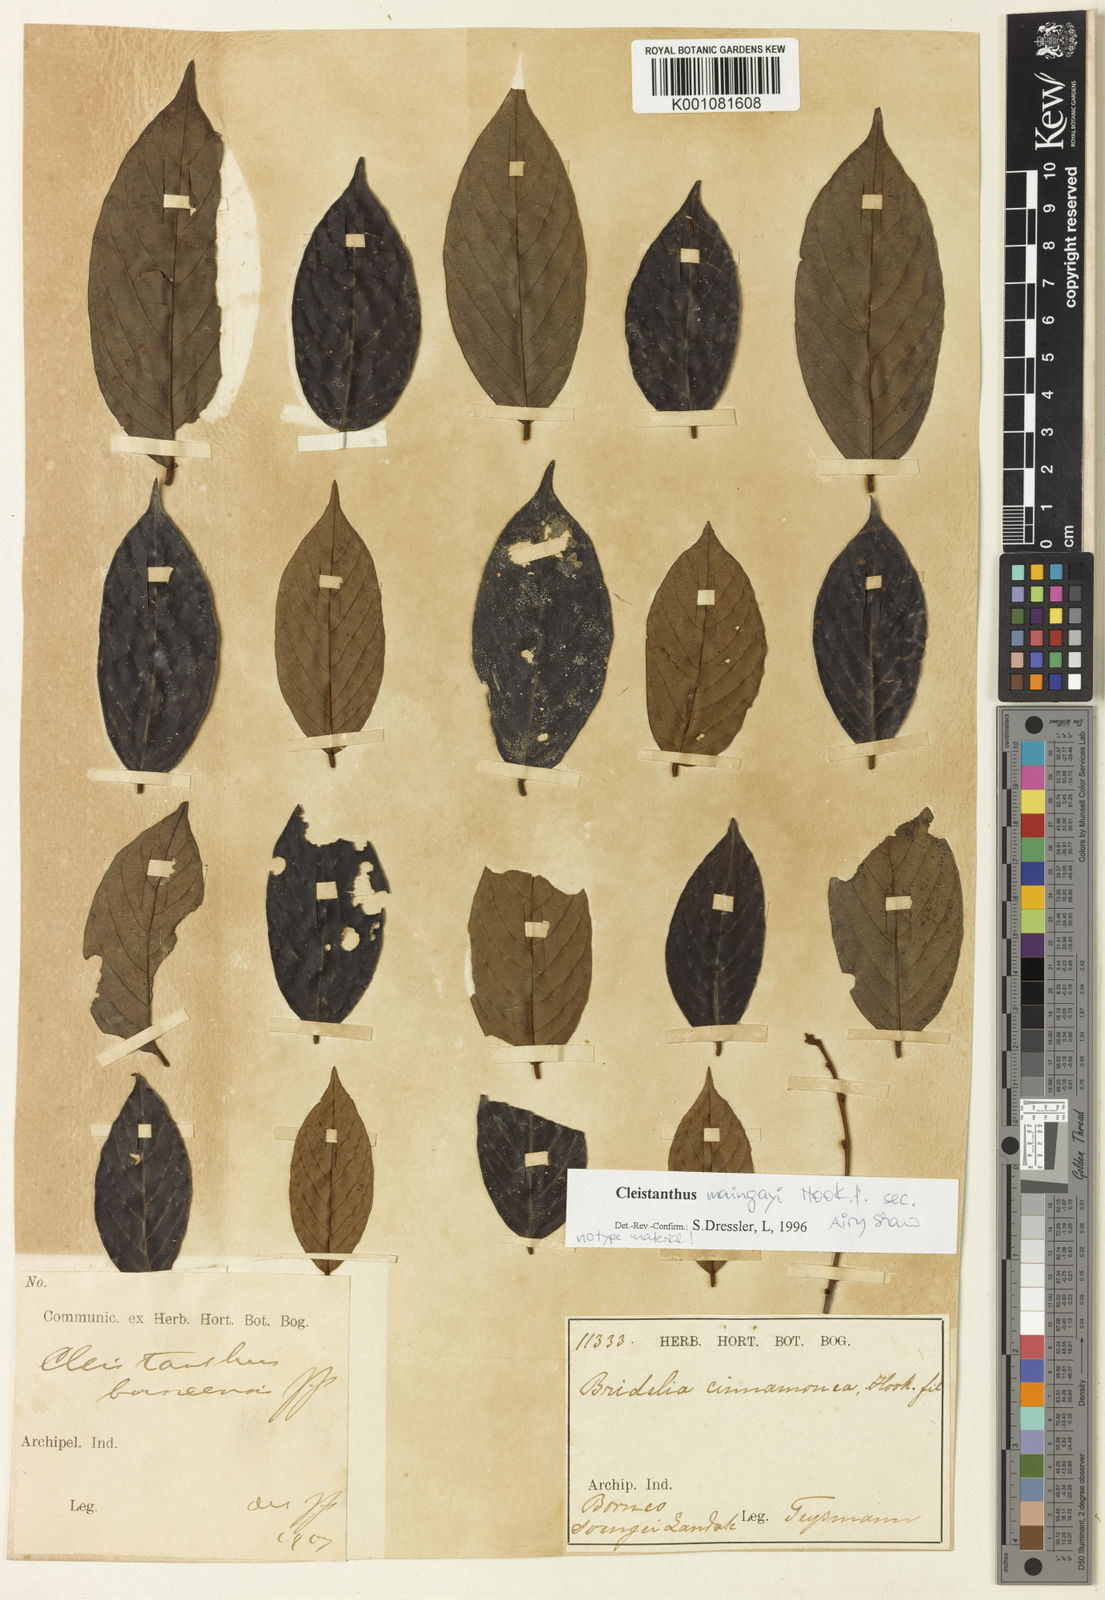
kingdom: Plantae
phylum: Tracheophyta
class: Magnoliopsida
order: Malpighiales
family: Phyllanthaceae
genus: Cleistanthus
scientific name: Cleistanthus maingayi
